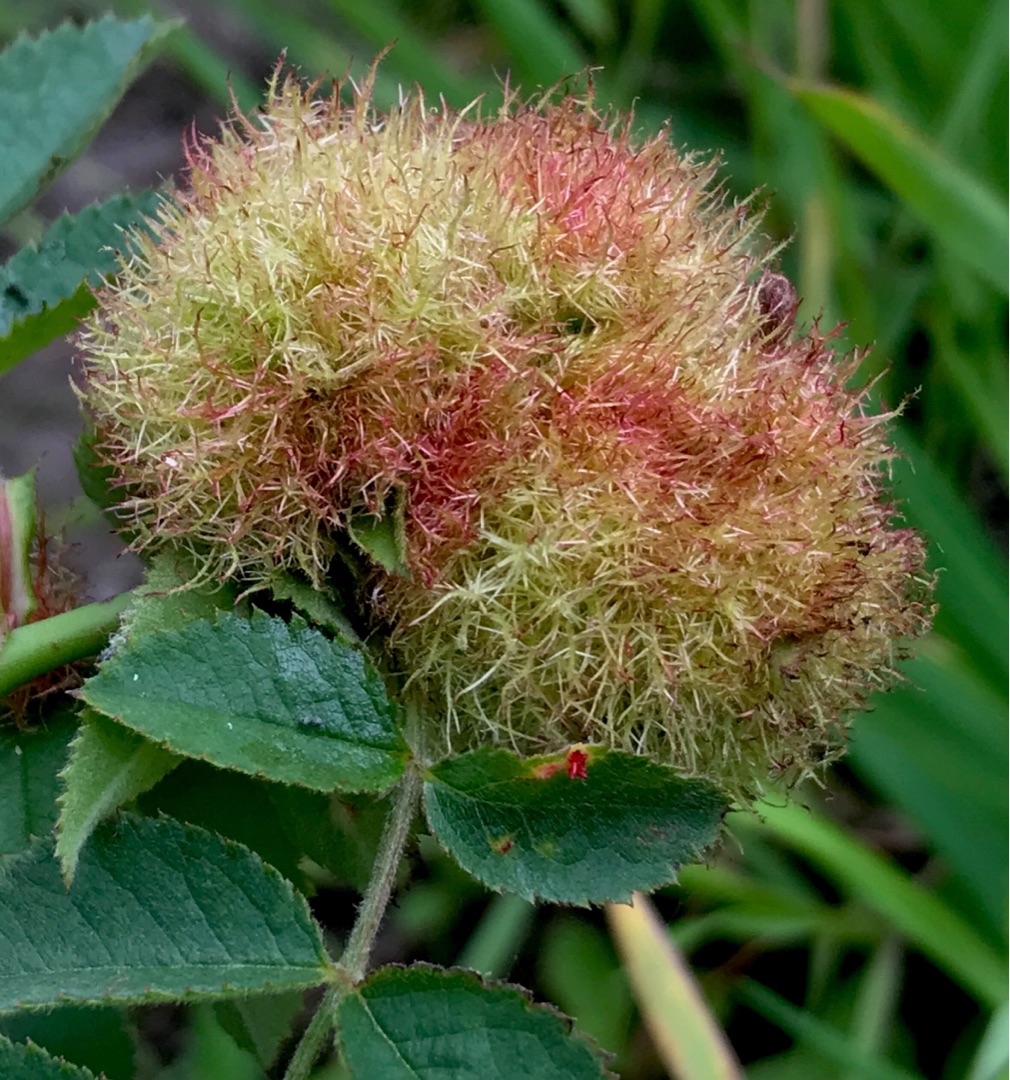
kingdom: Animalia
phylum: Arthropoda
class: Insecta
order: Hymenoptera
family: Cynipidae
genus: Diplolepis
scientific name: Diplolepis rosae
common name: Bedeguargalhveps
